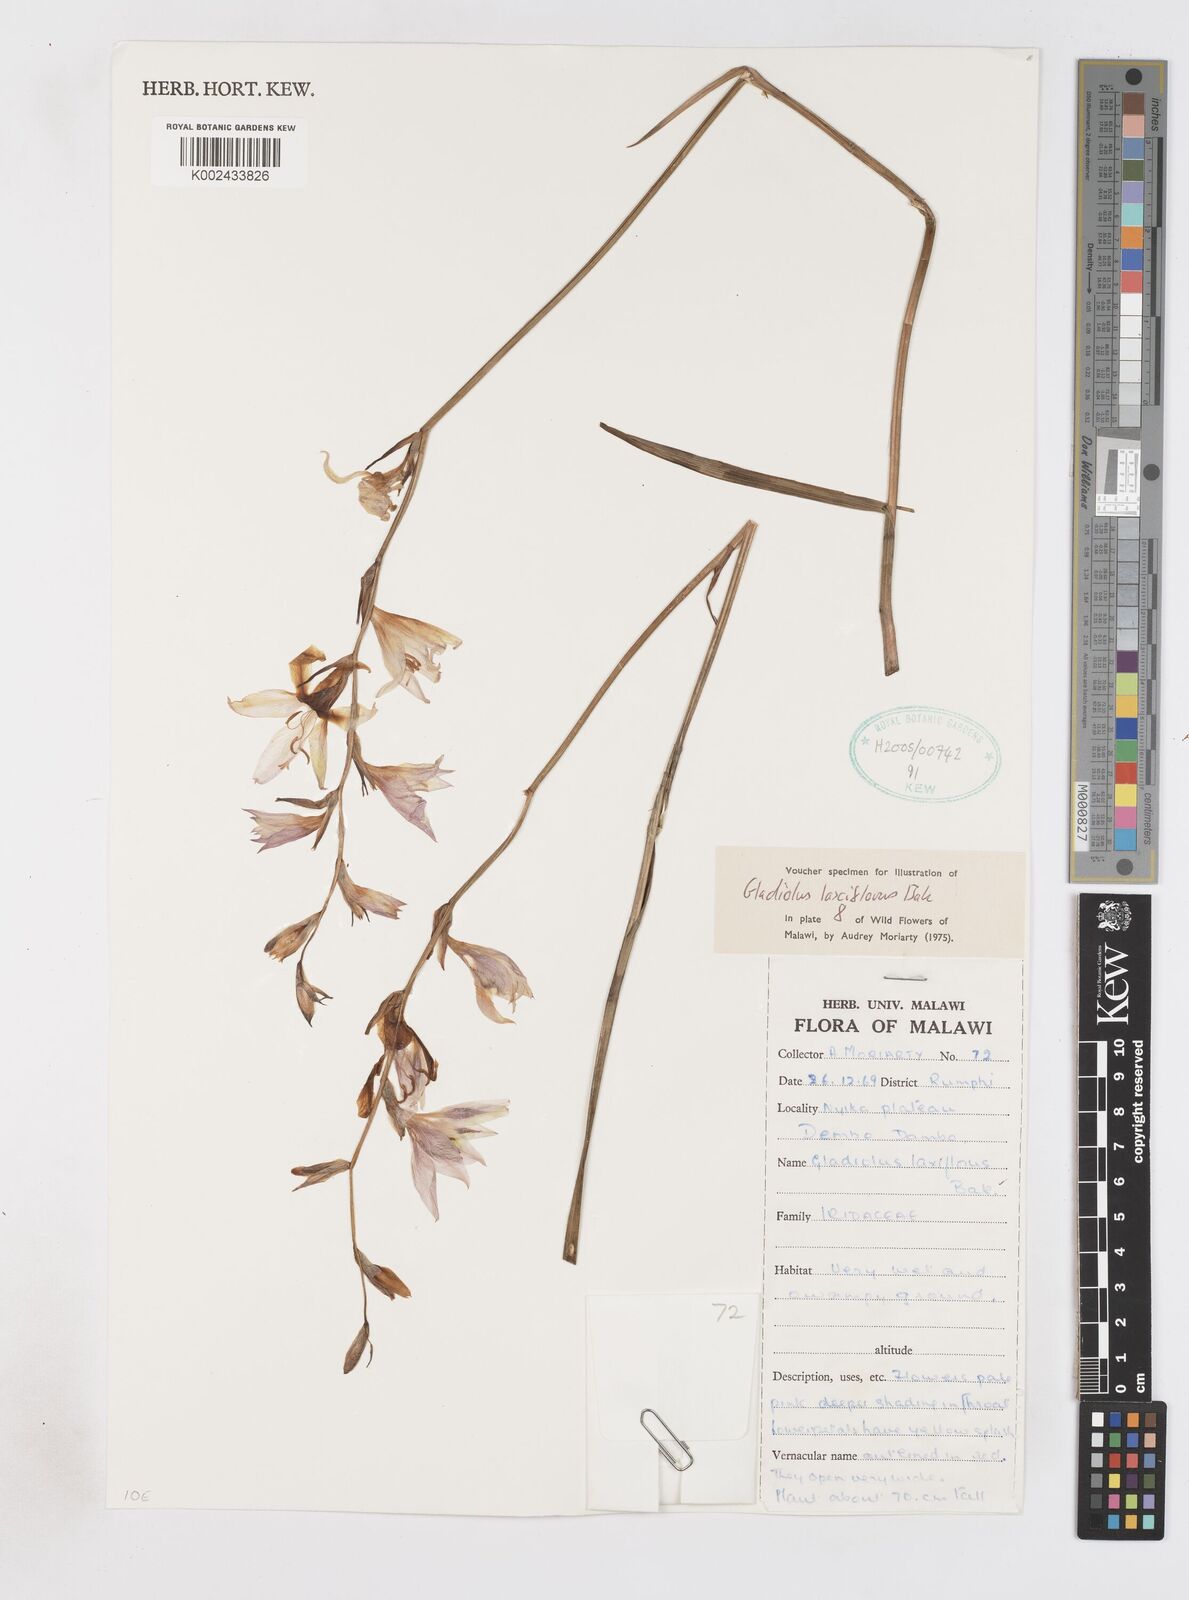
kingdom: Plantae
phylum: Tracheophyta
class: Liliopsida
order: Asparagales
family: Iridaceae
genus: Gladiolus
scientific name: Gladiolus laxiflorus
